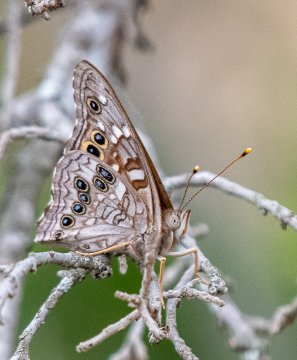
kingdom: Animalia
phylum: Arthropoda
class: Insecta
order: Lepidoptera
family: Nymphalidae
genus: Asterocampa
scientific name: Asterocampa leilia
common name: Empress Leilia
